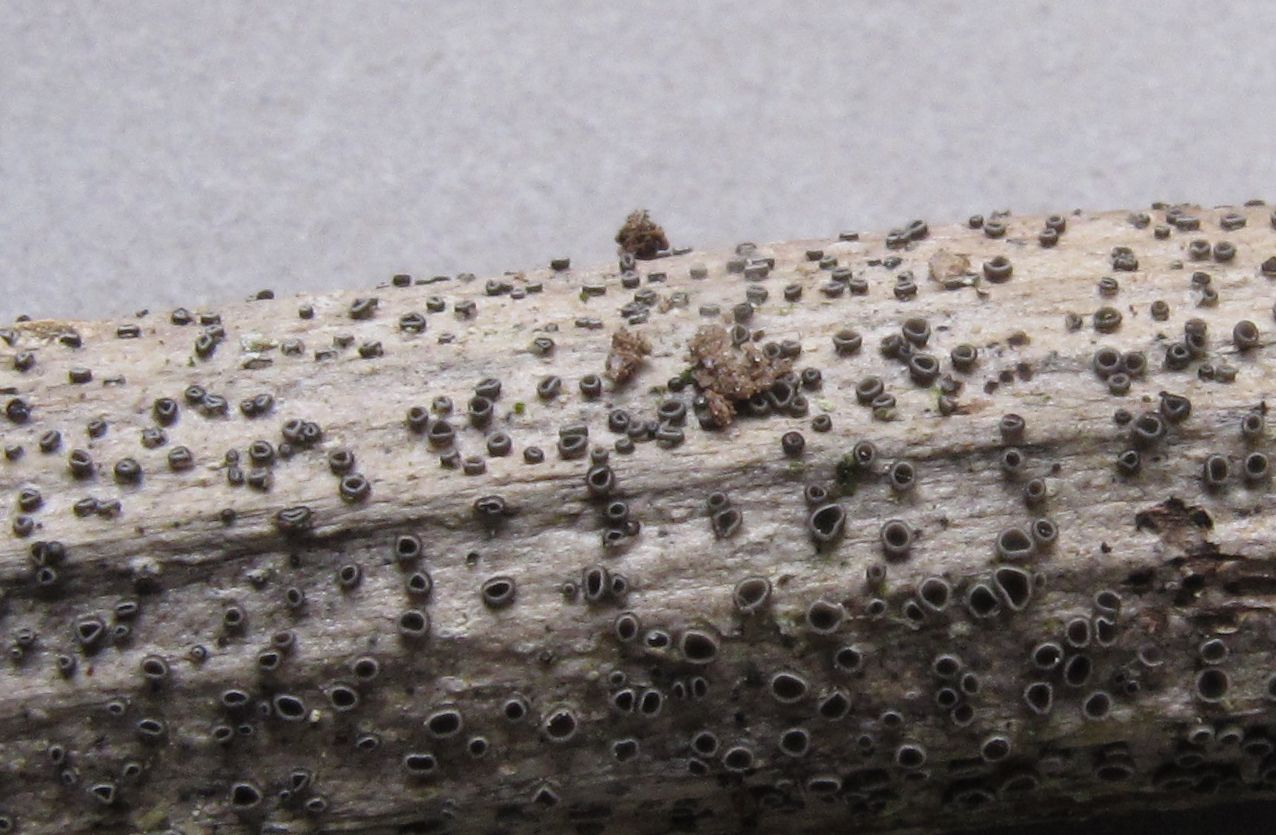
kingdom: Fungi
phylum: Ascomycota
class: Leotiomycetes
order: Helotiales
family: Ploettnerulaceae
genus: Pyrenopeziza
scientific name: Pyrenopeziza
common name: kerneskive
